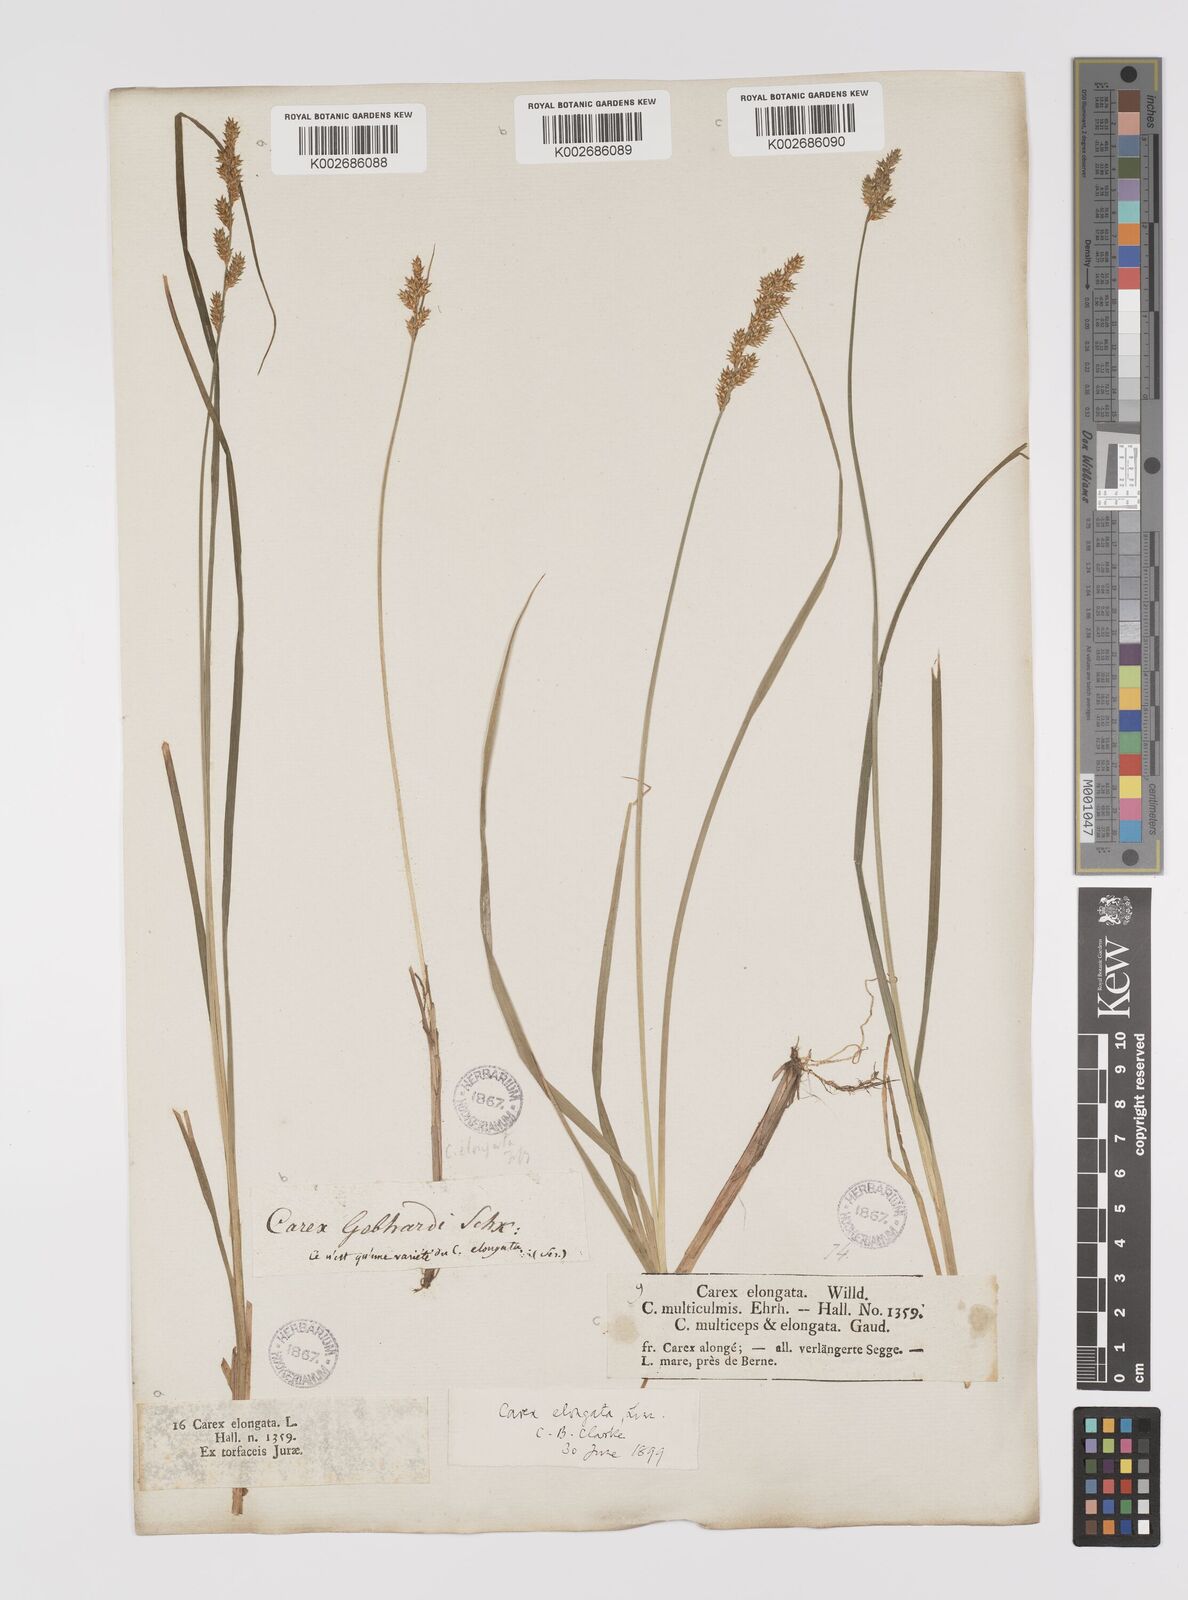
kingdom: Plantae
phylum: Tracheophyta
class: Liliopsida
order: Poales
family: Cyperaceae
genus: Carex
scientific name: Carex elongata
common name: Elongated sedge
